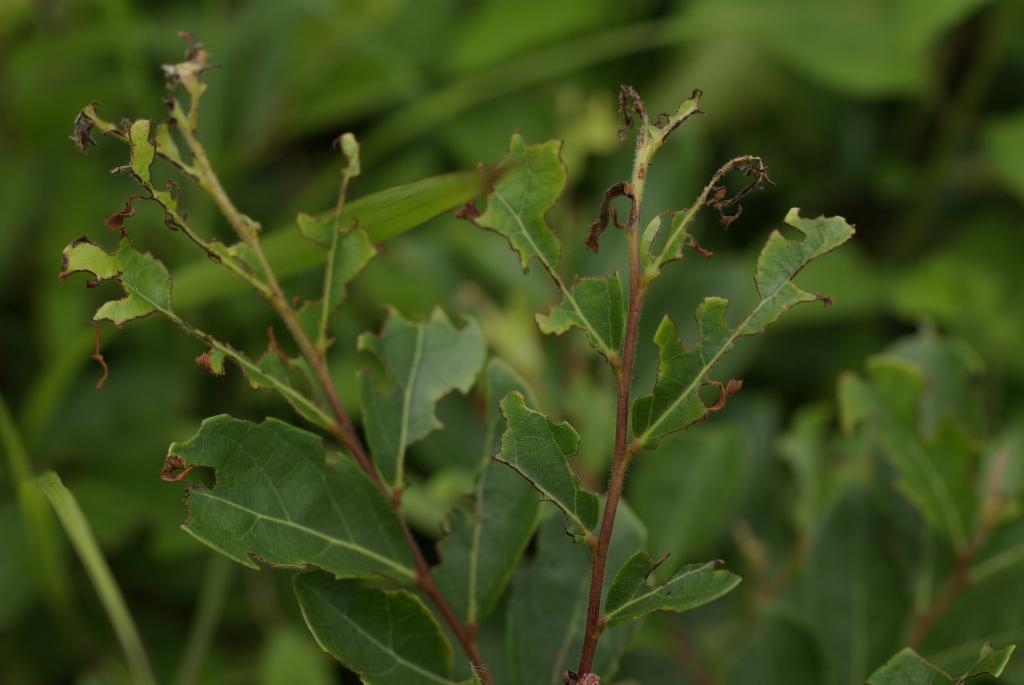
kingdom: Plantae
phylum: Tracheophyta
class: Magnoliopsida
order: Malpighiales
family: Phyllanthaceae
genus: Glochidion
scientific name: Glochidion puberum
